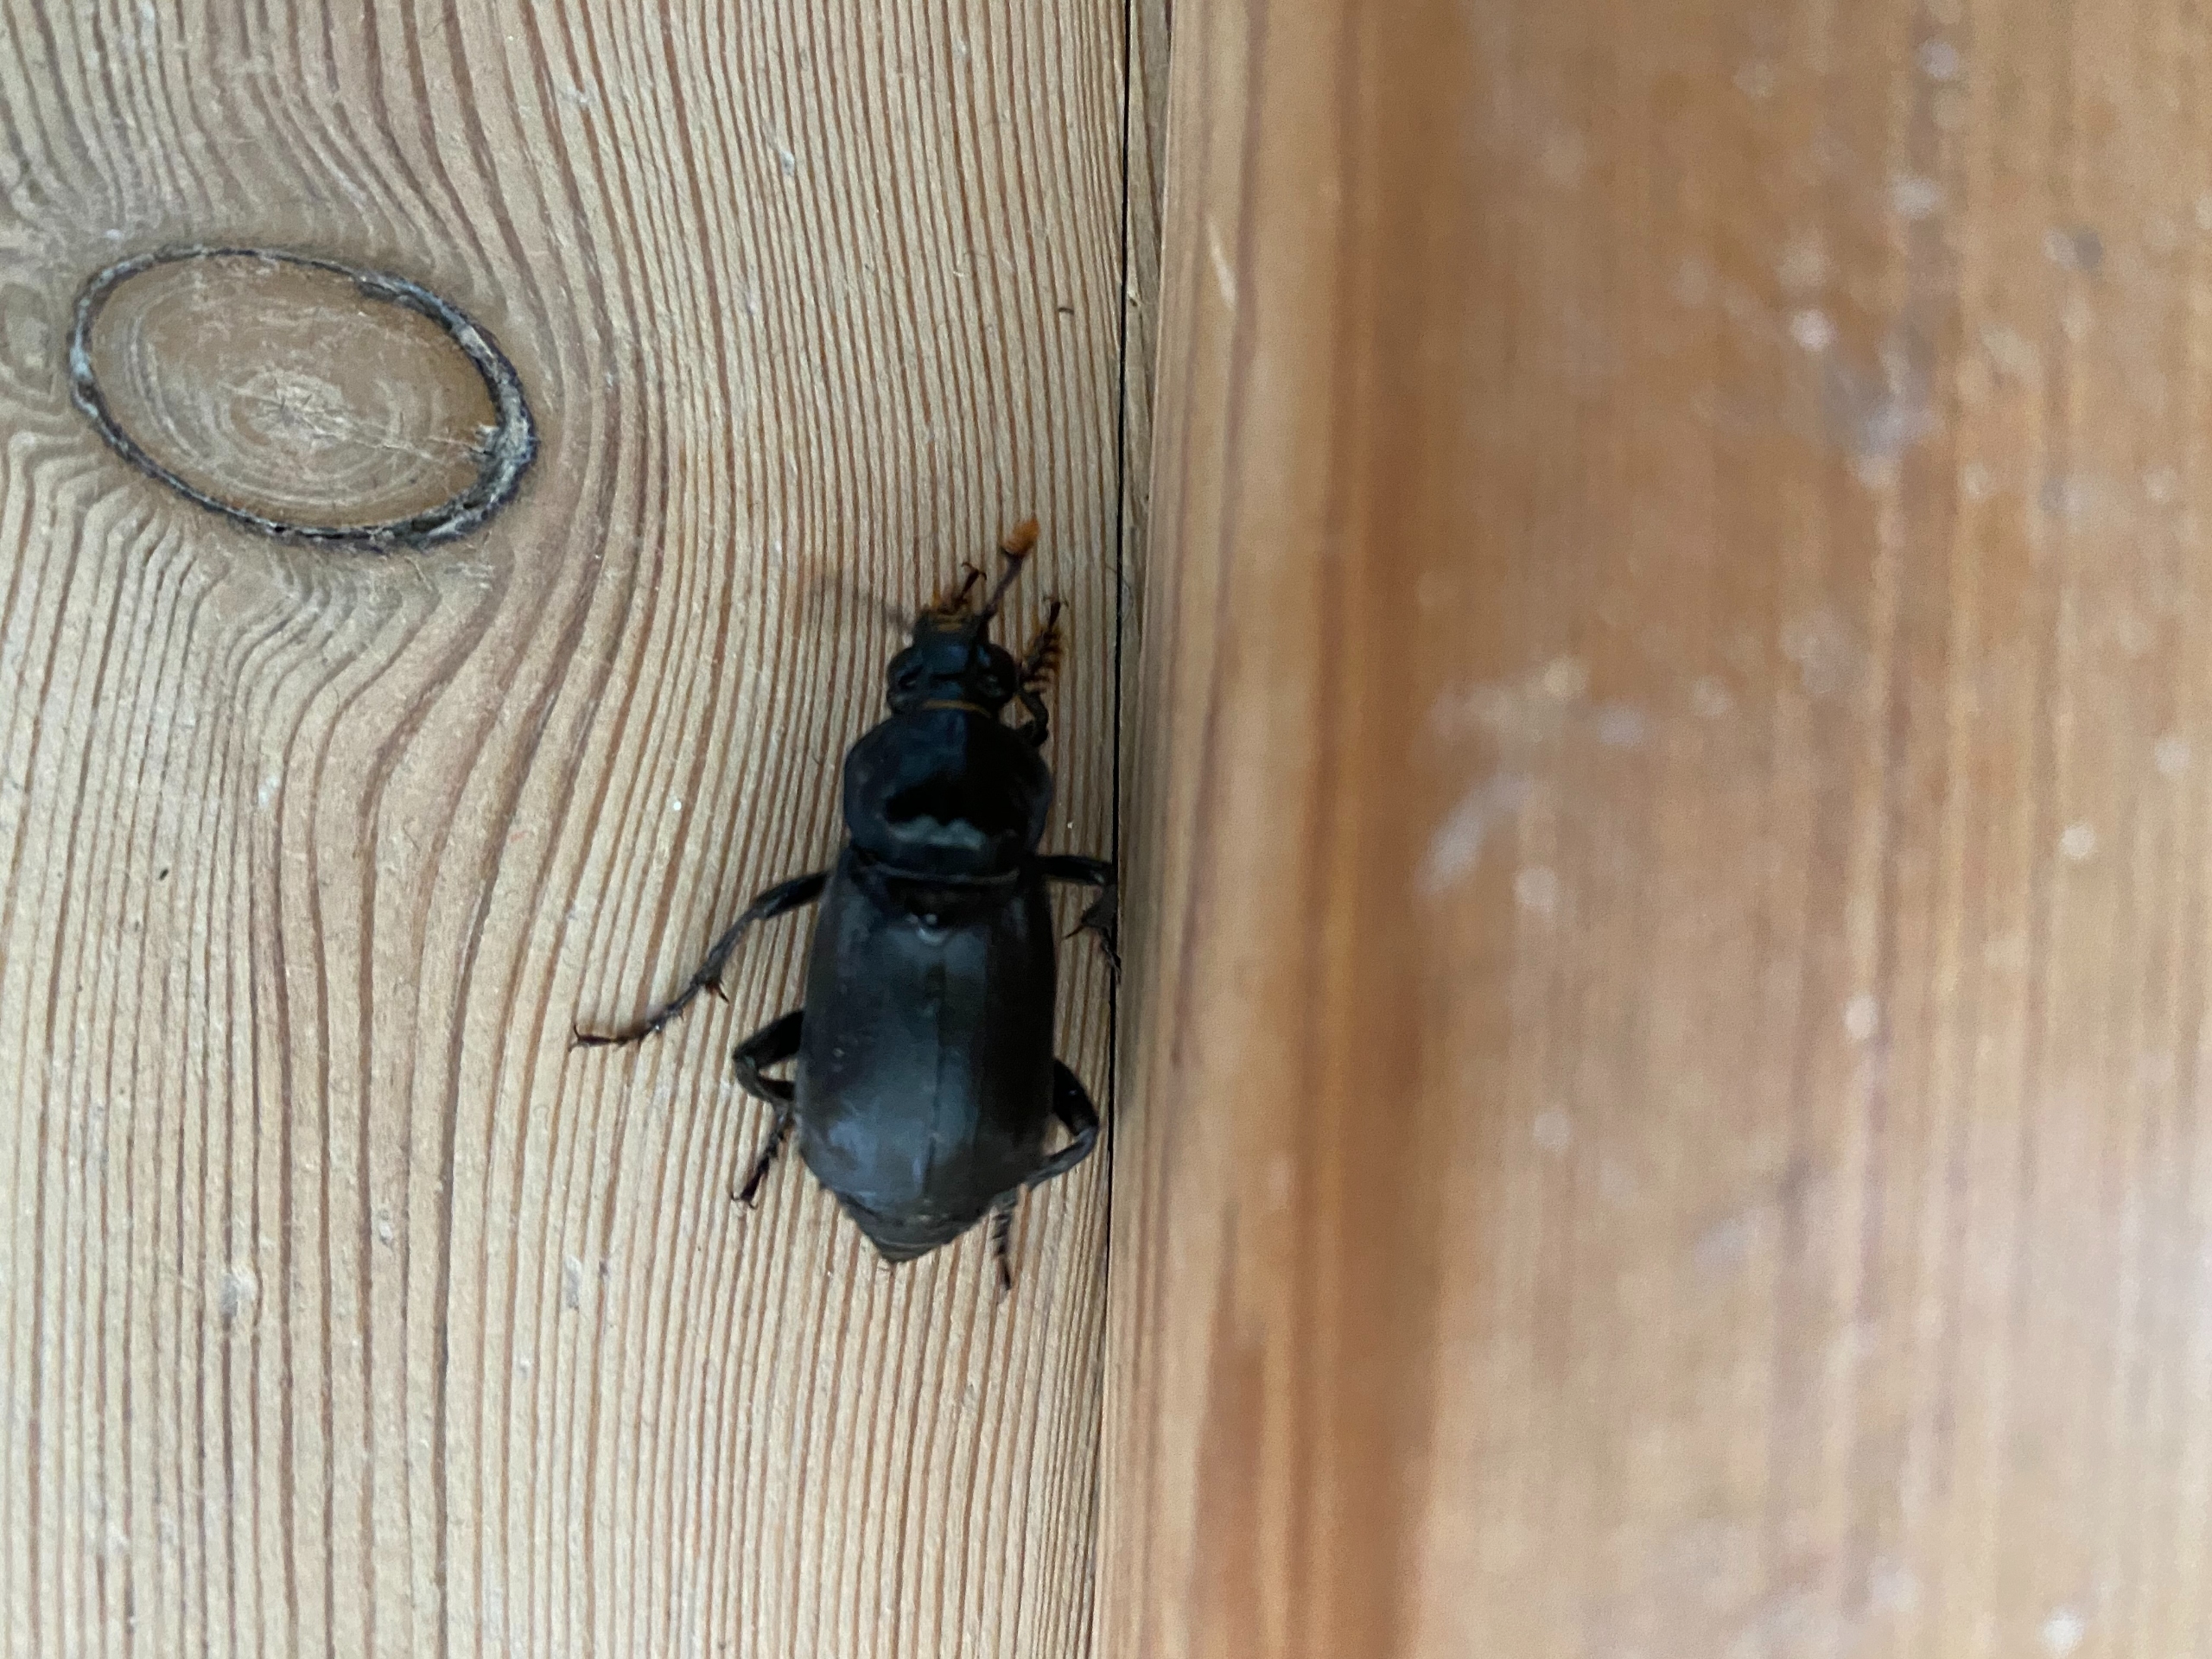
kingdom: Animalia
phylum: Arthropoda
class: Insecta
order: Coleoptera
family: Staphylinidae
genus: Nicrophorus
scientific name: Nicrophorus humator
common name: Sort ådselgraver
